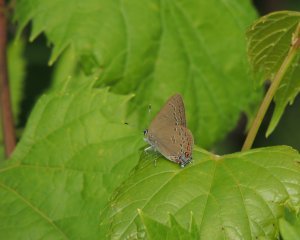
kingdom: Animalia
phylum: Arthropoda
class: Insecta
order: Lepidoptera
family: Lycaenidae
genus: Satyrium
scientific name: Satyrium edwardsii
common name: Edwards' Hairstreak
